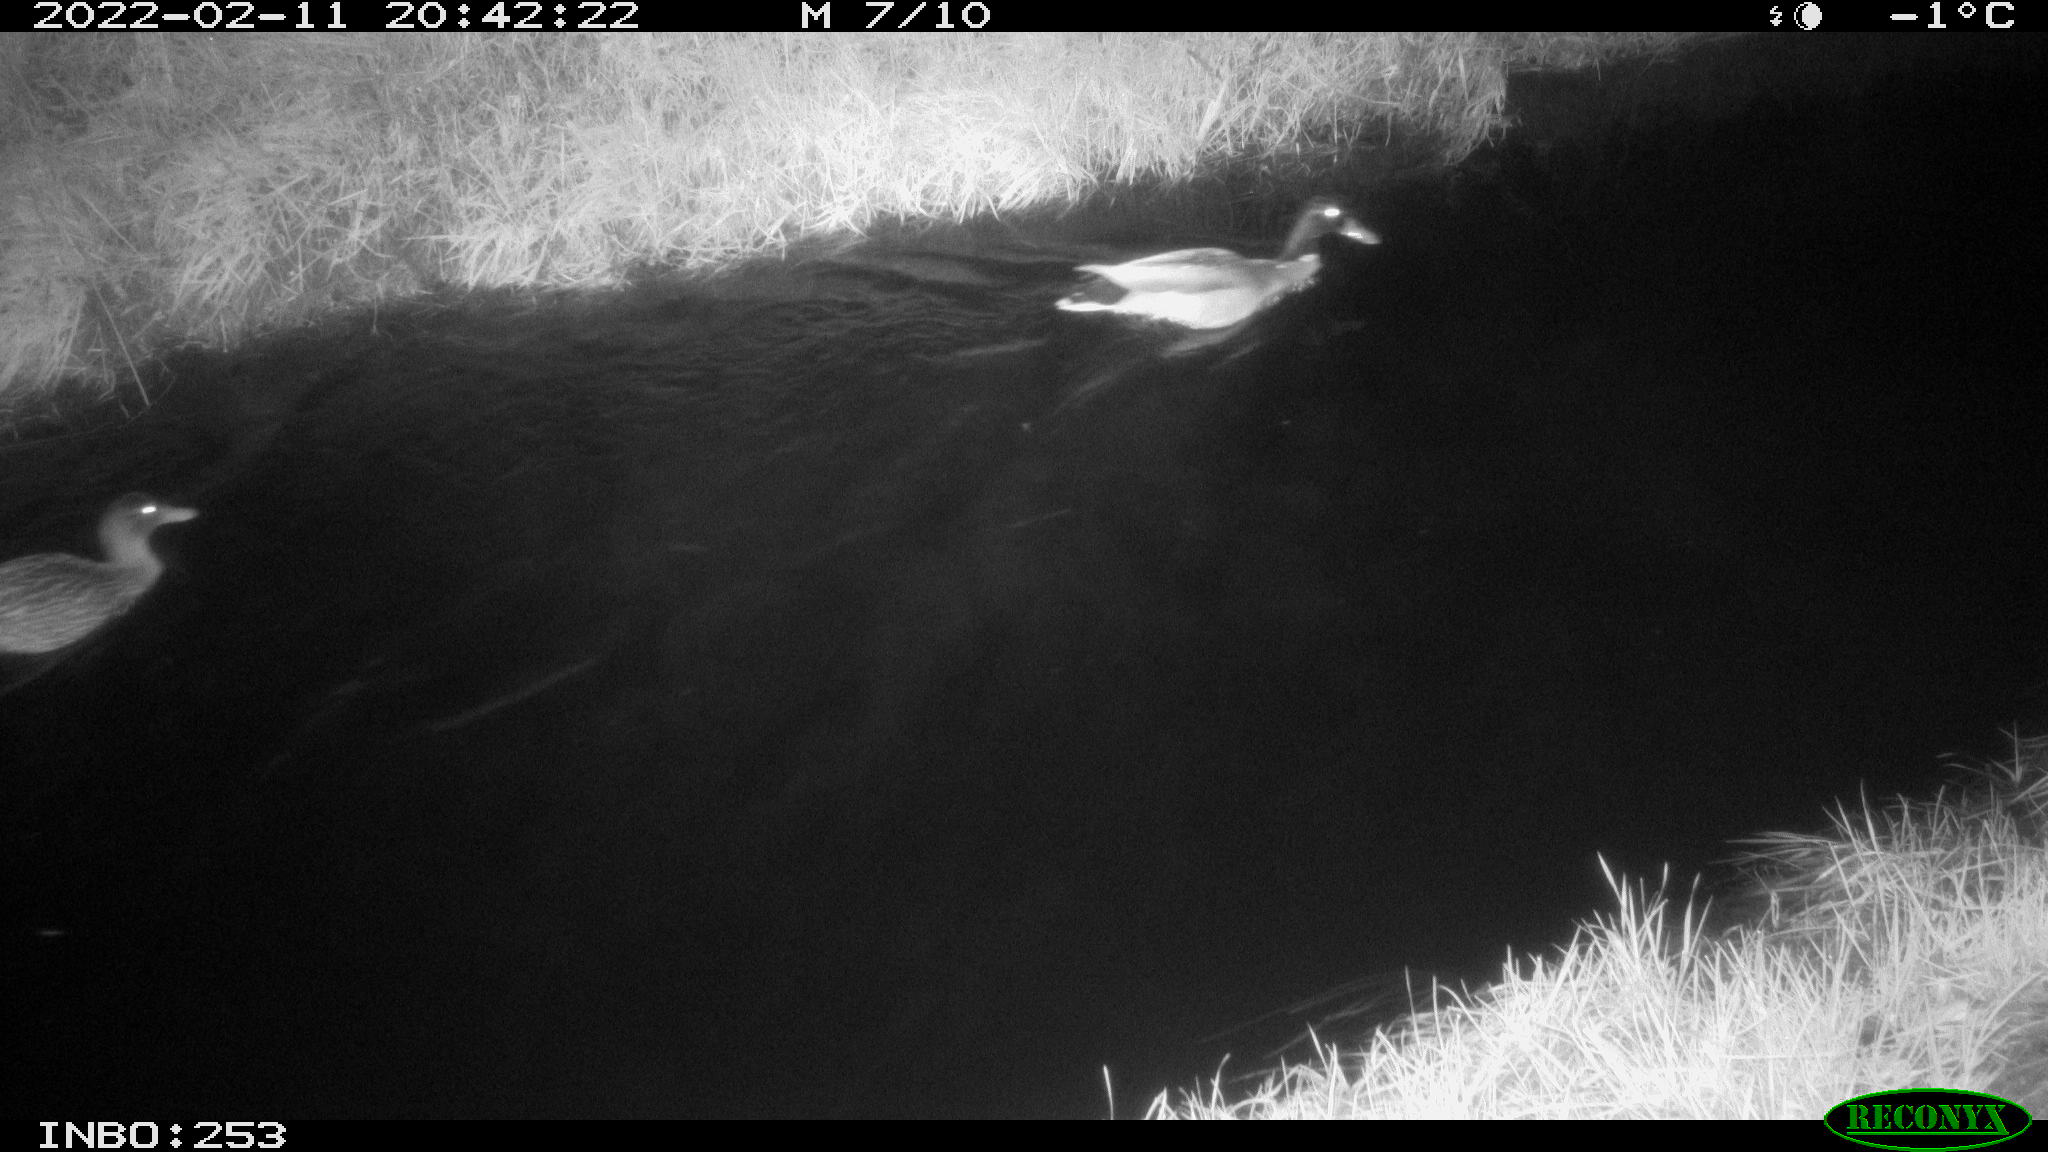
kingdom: Animalia
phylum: Chordata
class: Aves
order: Anseriformes
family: Anatidae
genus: Anas
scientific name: Anas platyrhynchos
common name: Mallard
